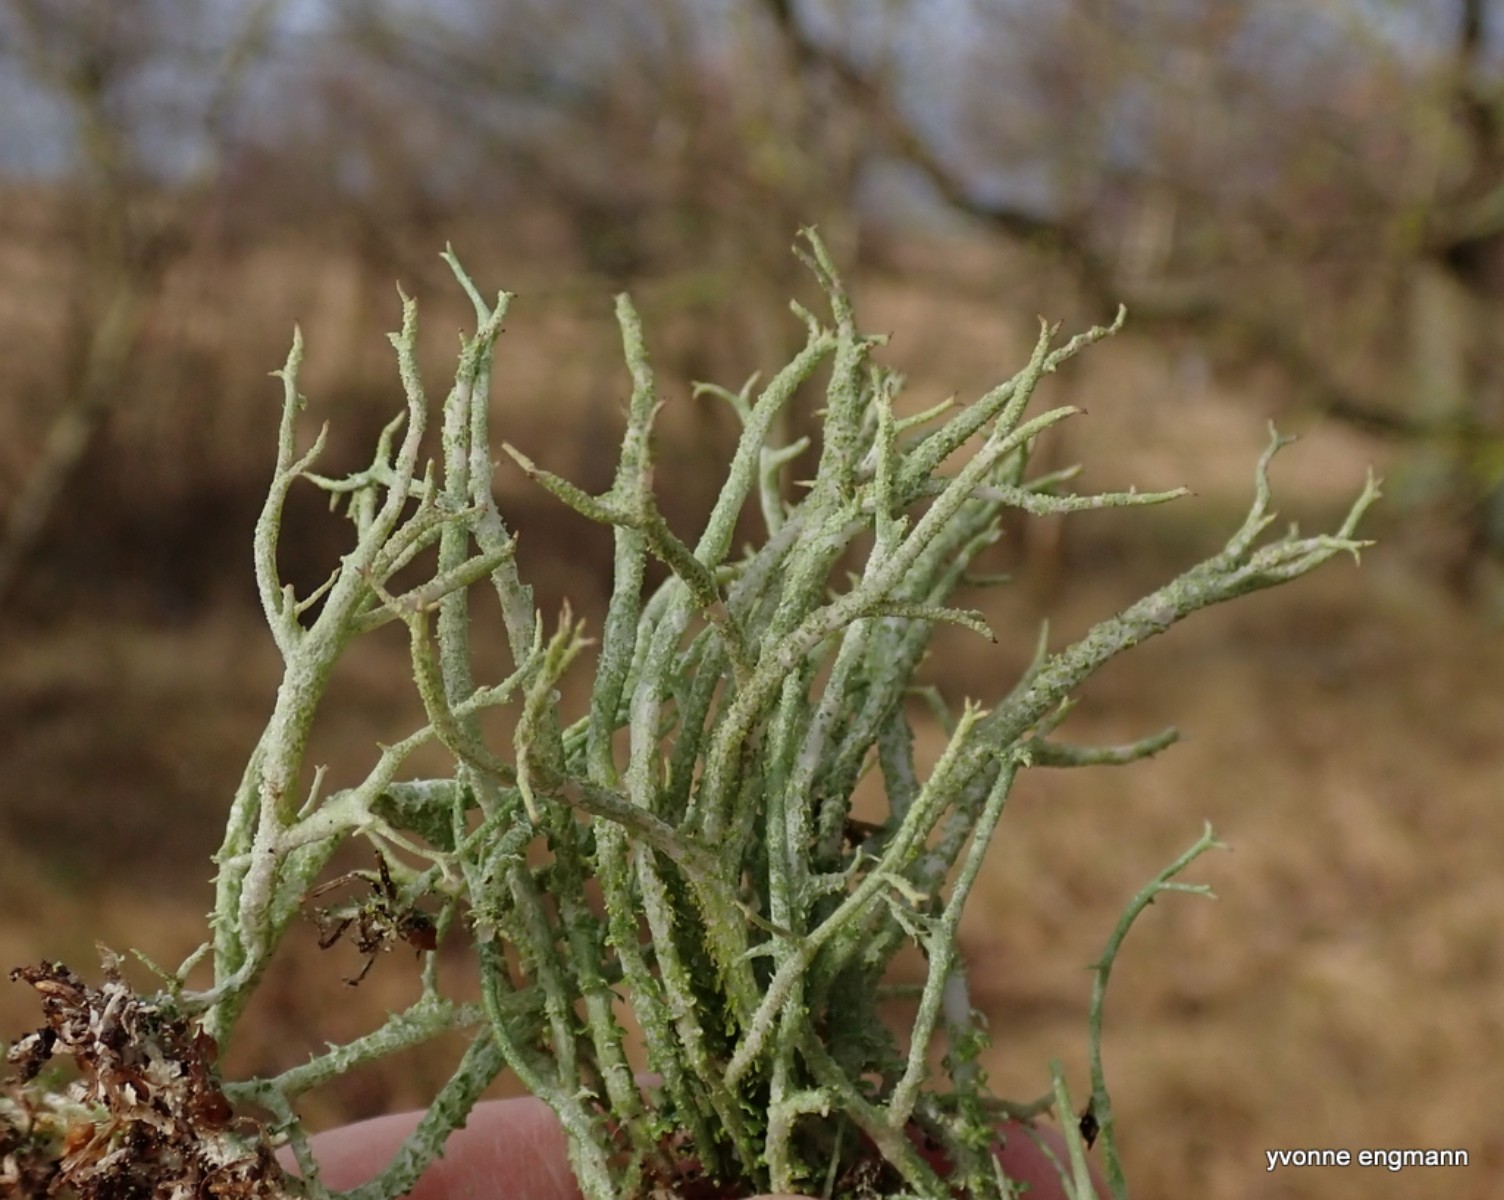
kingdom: Fungi
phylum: Ascomycota
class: Lecanoromycetes
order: Lecanorales
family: Cladoniaceae
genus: Cladonia
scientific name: Cladonia scabriuscula
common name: ru bægerlav
